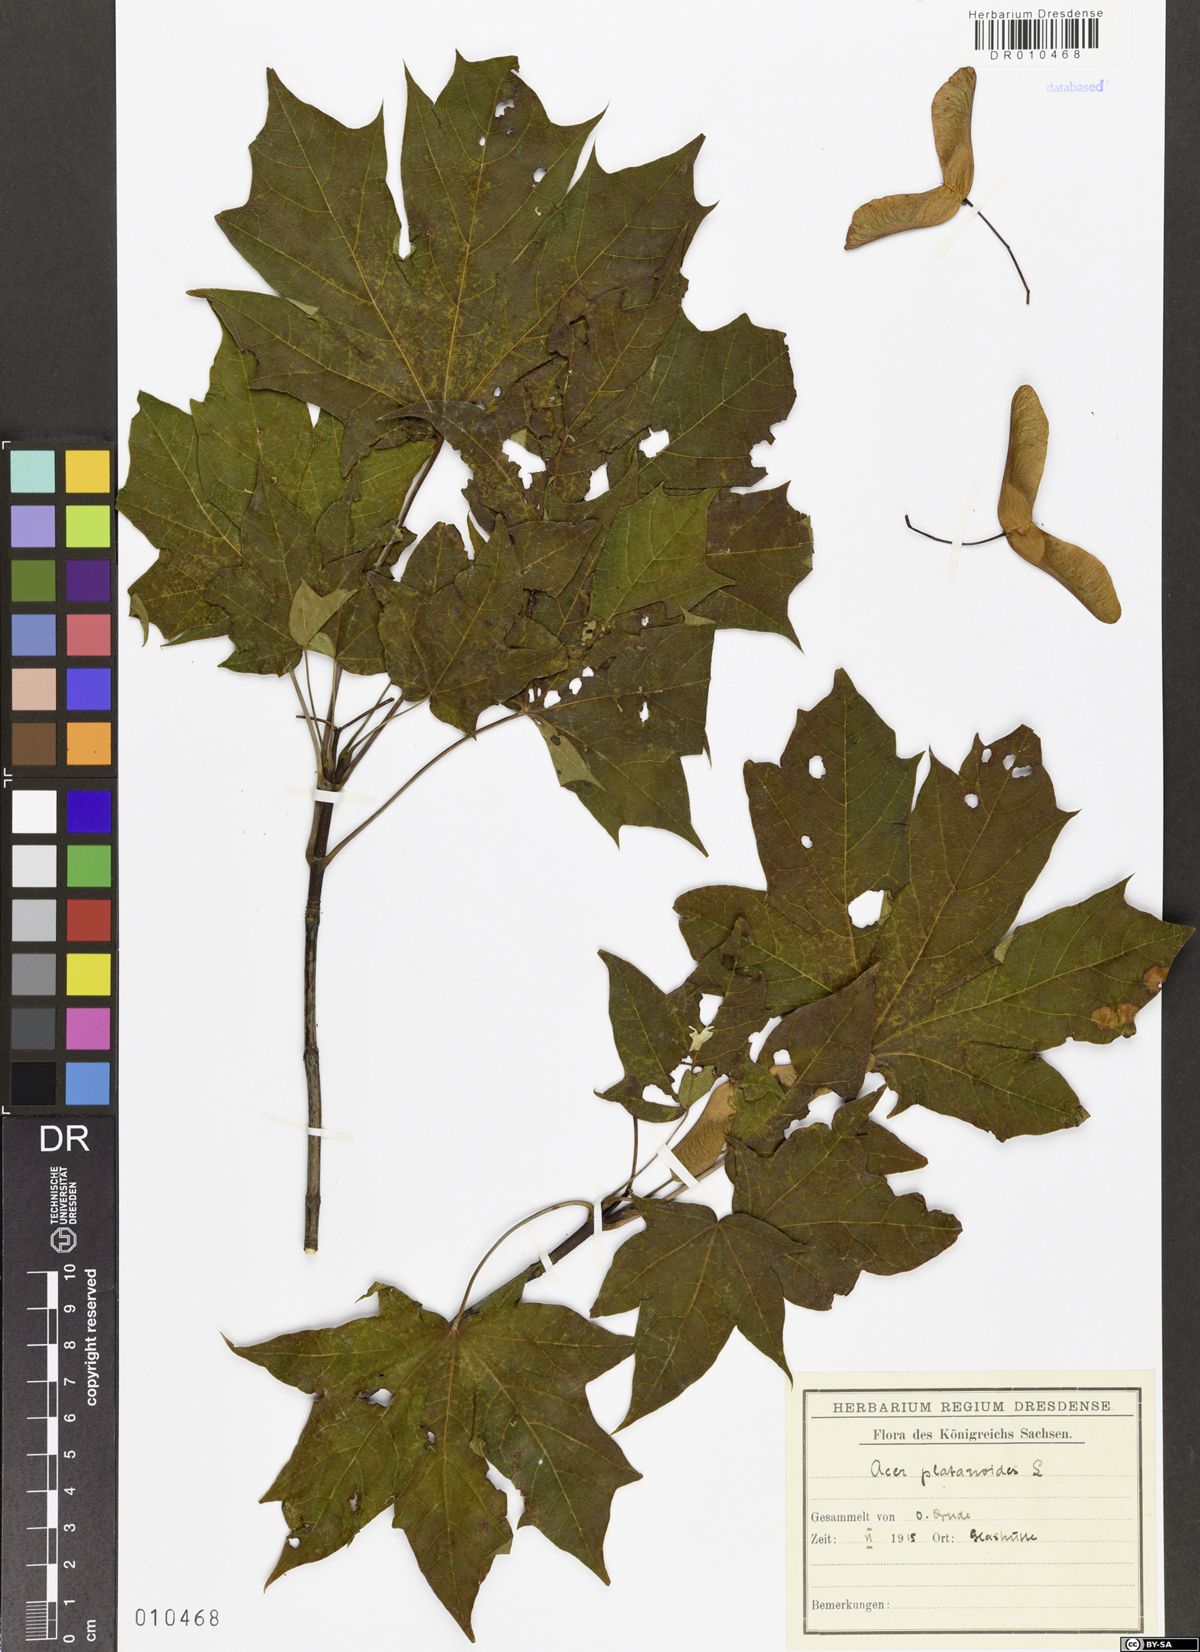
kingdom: Plantae
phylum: Tracheophyta
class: Magnoliopsida
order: Sapindales
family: Sapindaceae
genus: Acer
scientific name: Acer platanoides
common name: Norway maple
